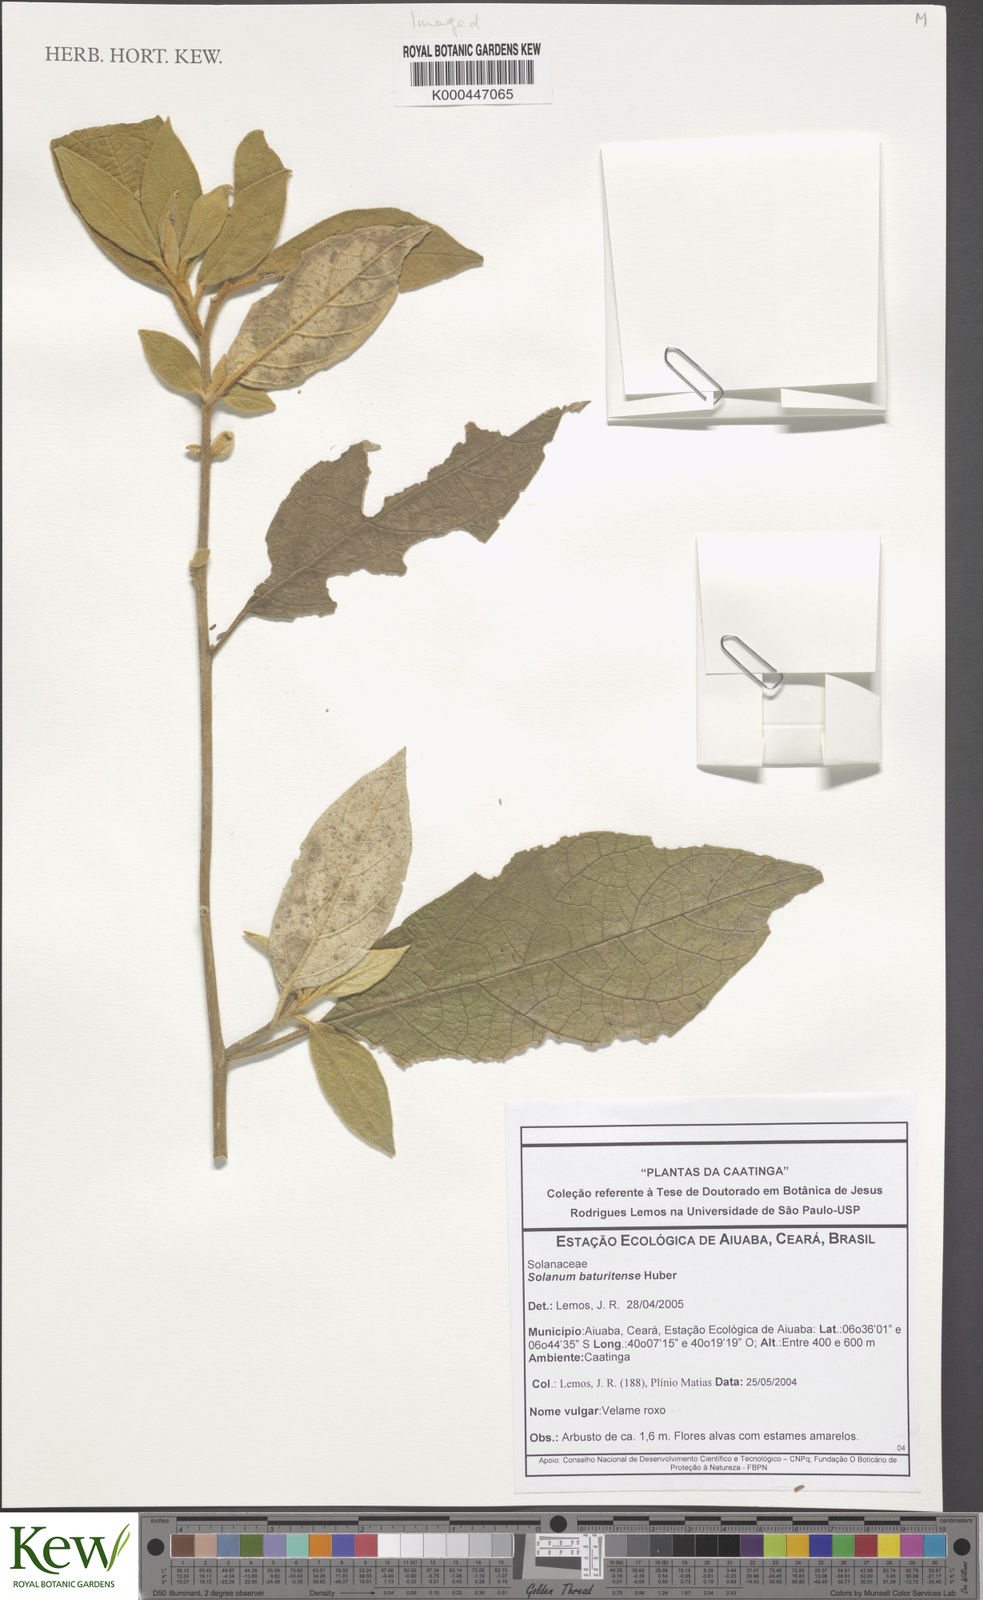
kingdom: Plantae
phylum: Tracheophyta
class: Magnoliopsida
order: Solanales
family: Solanaceae
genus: Solanum
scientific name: Solanum rhytidoandrum
